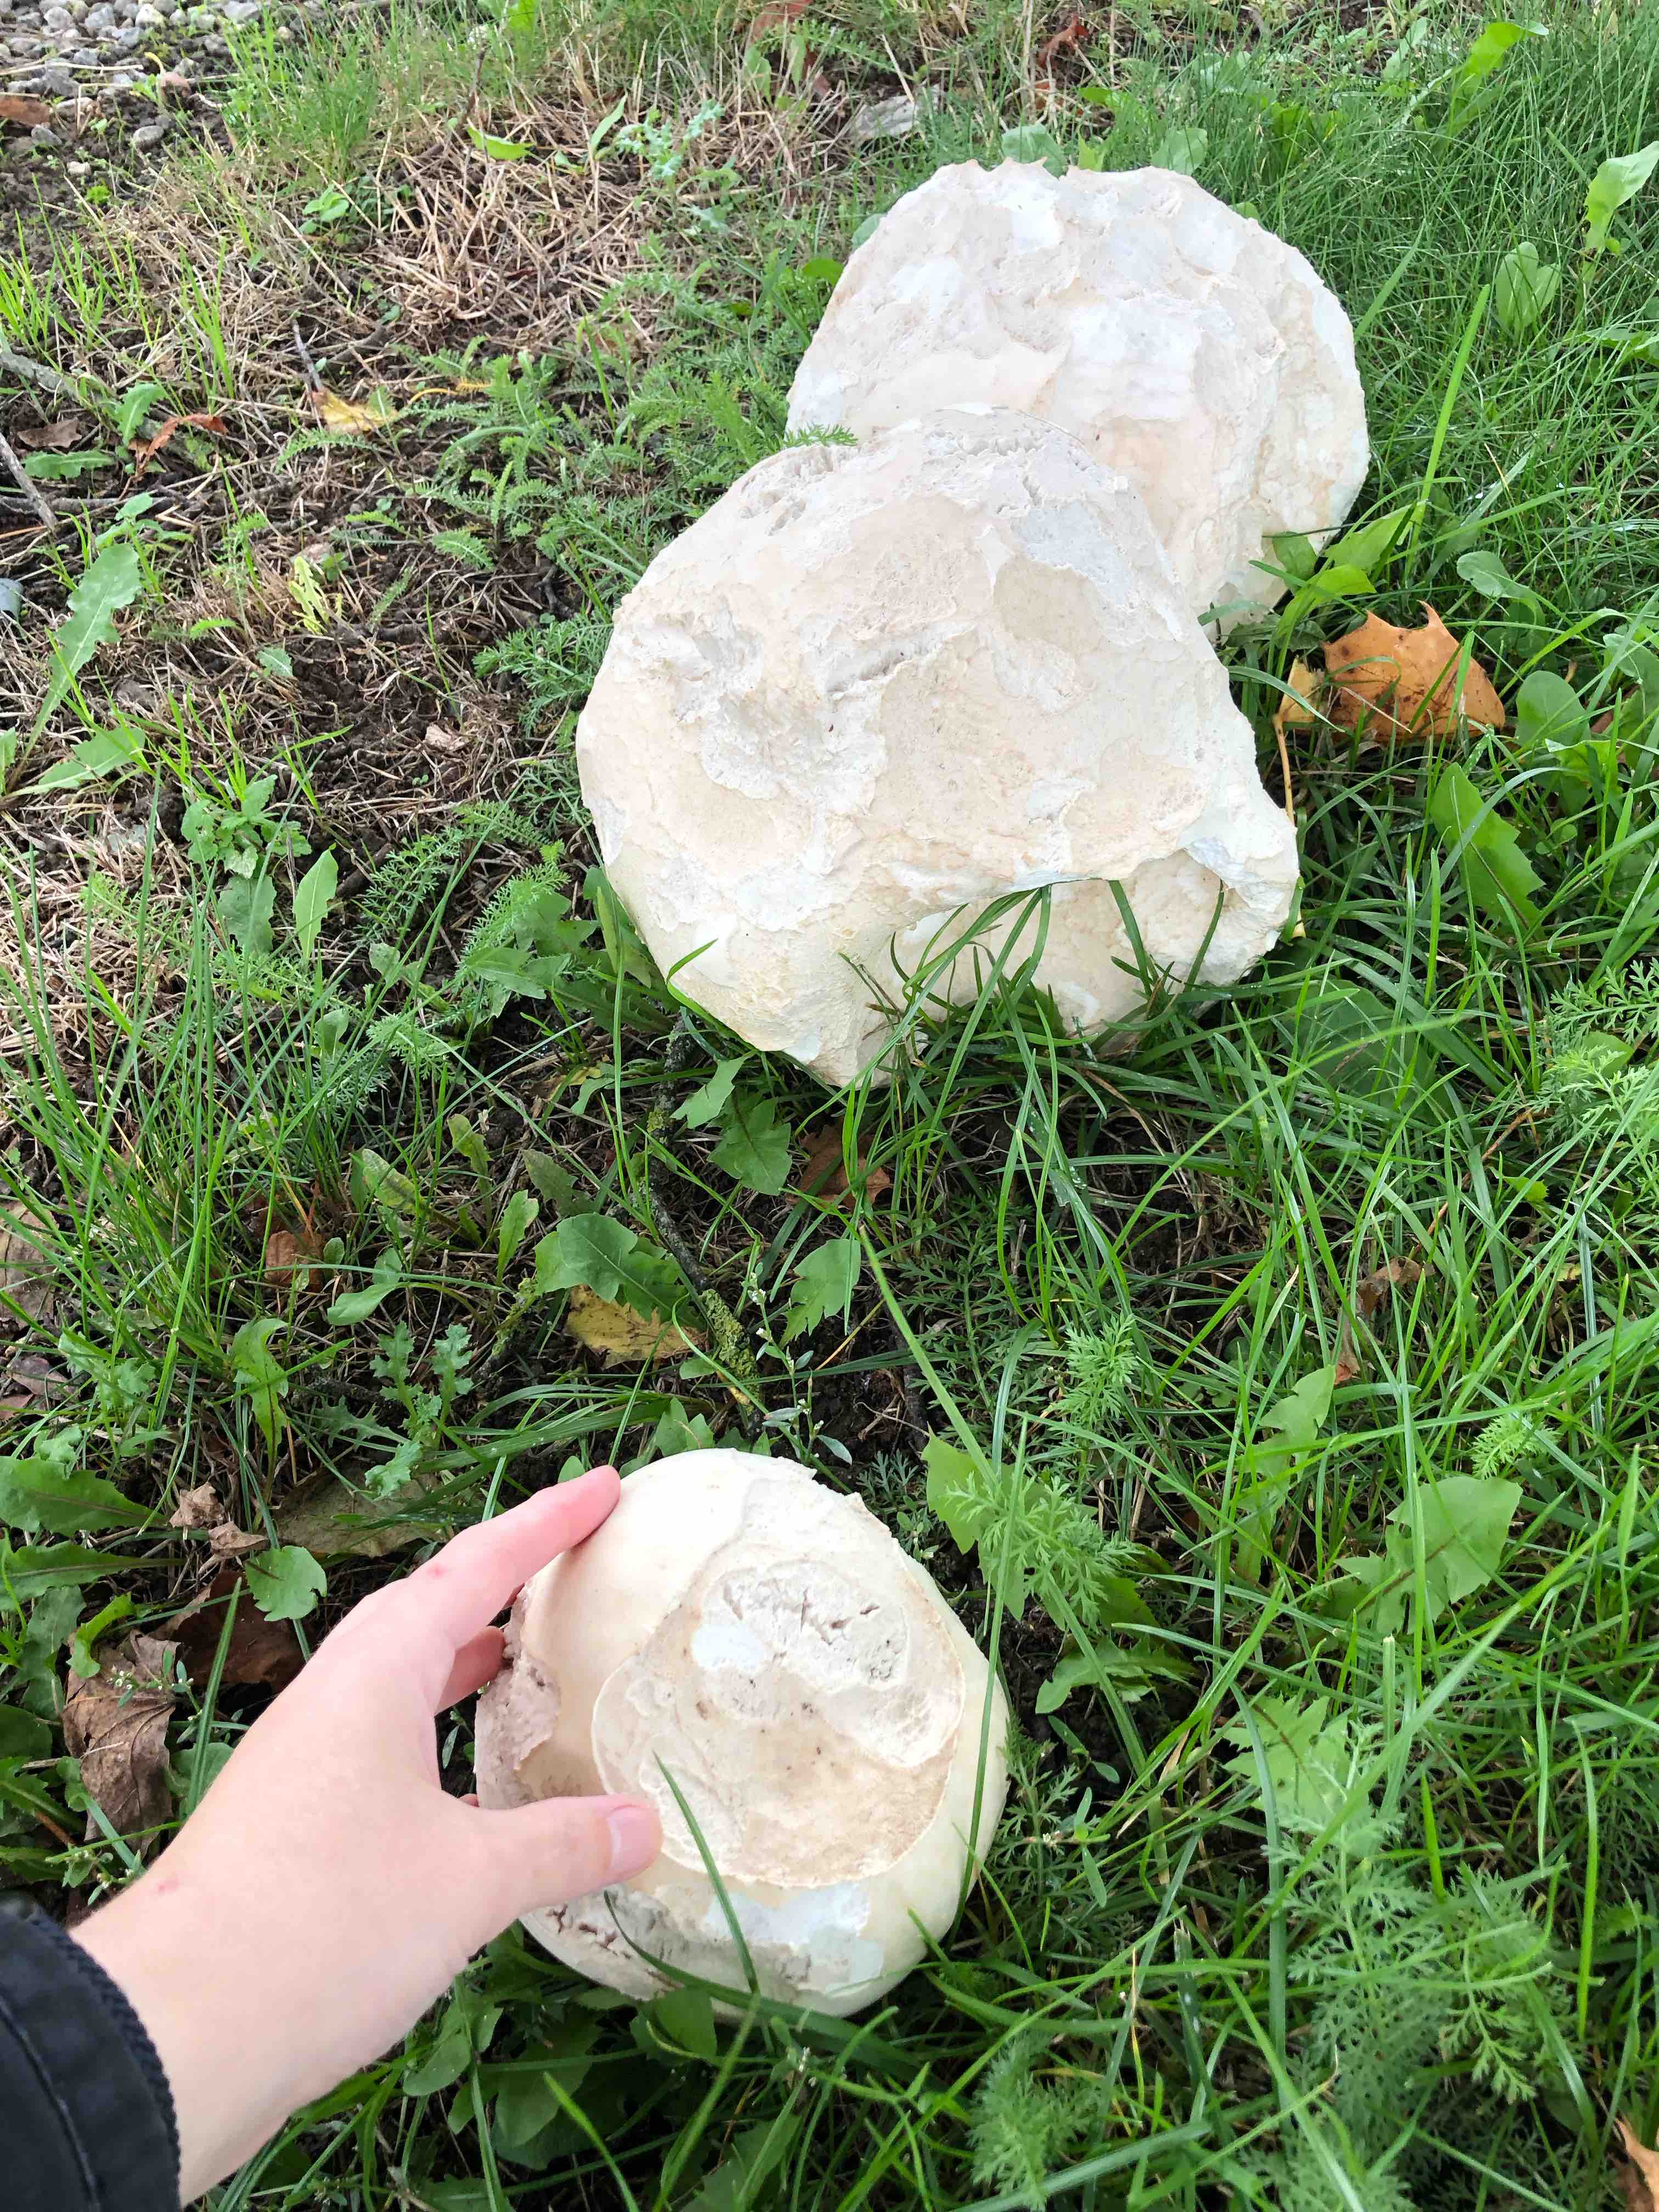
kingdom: Fungi
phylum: Basidiomycota
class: Agaricomycetes
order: Agaricales
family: Lycoperdaceae
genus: Calvatia
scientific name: Calvatia gigantea
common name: kæmpestøvbold
